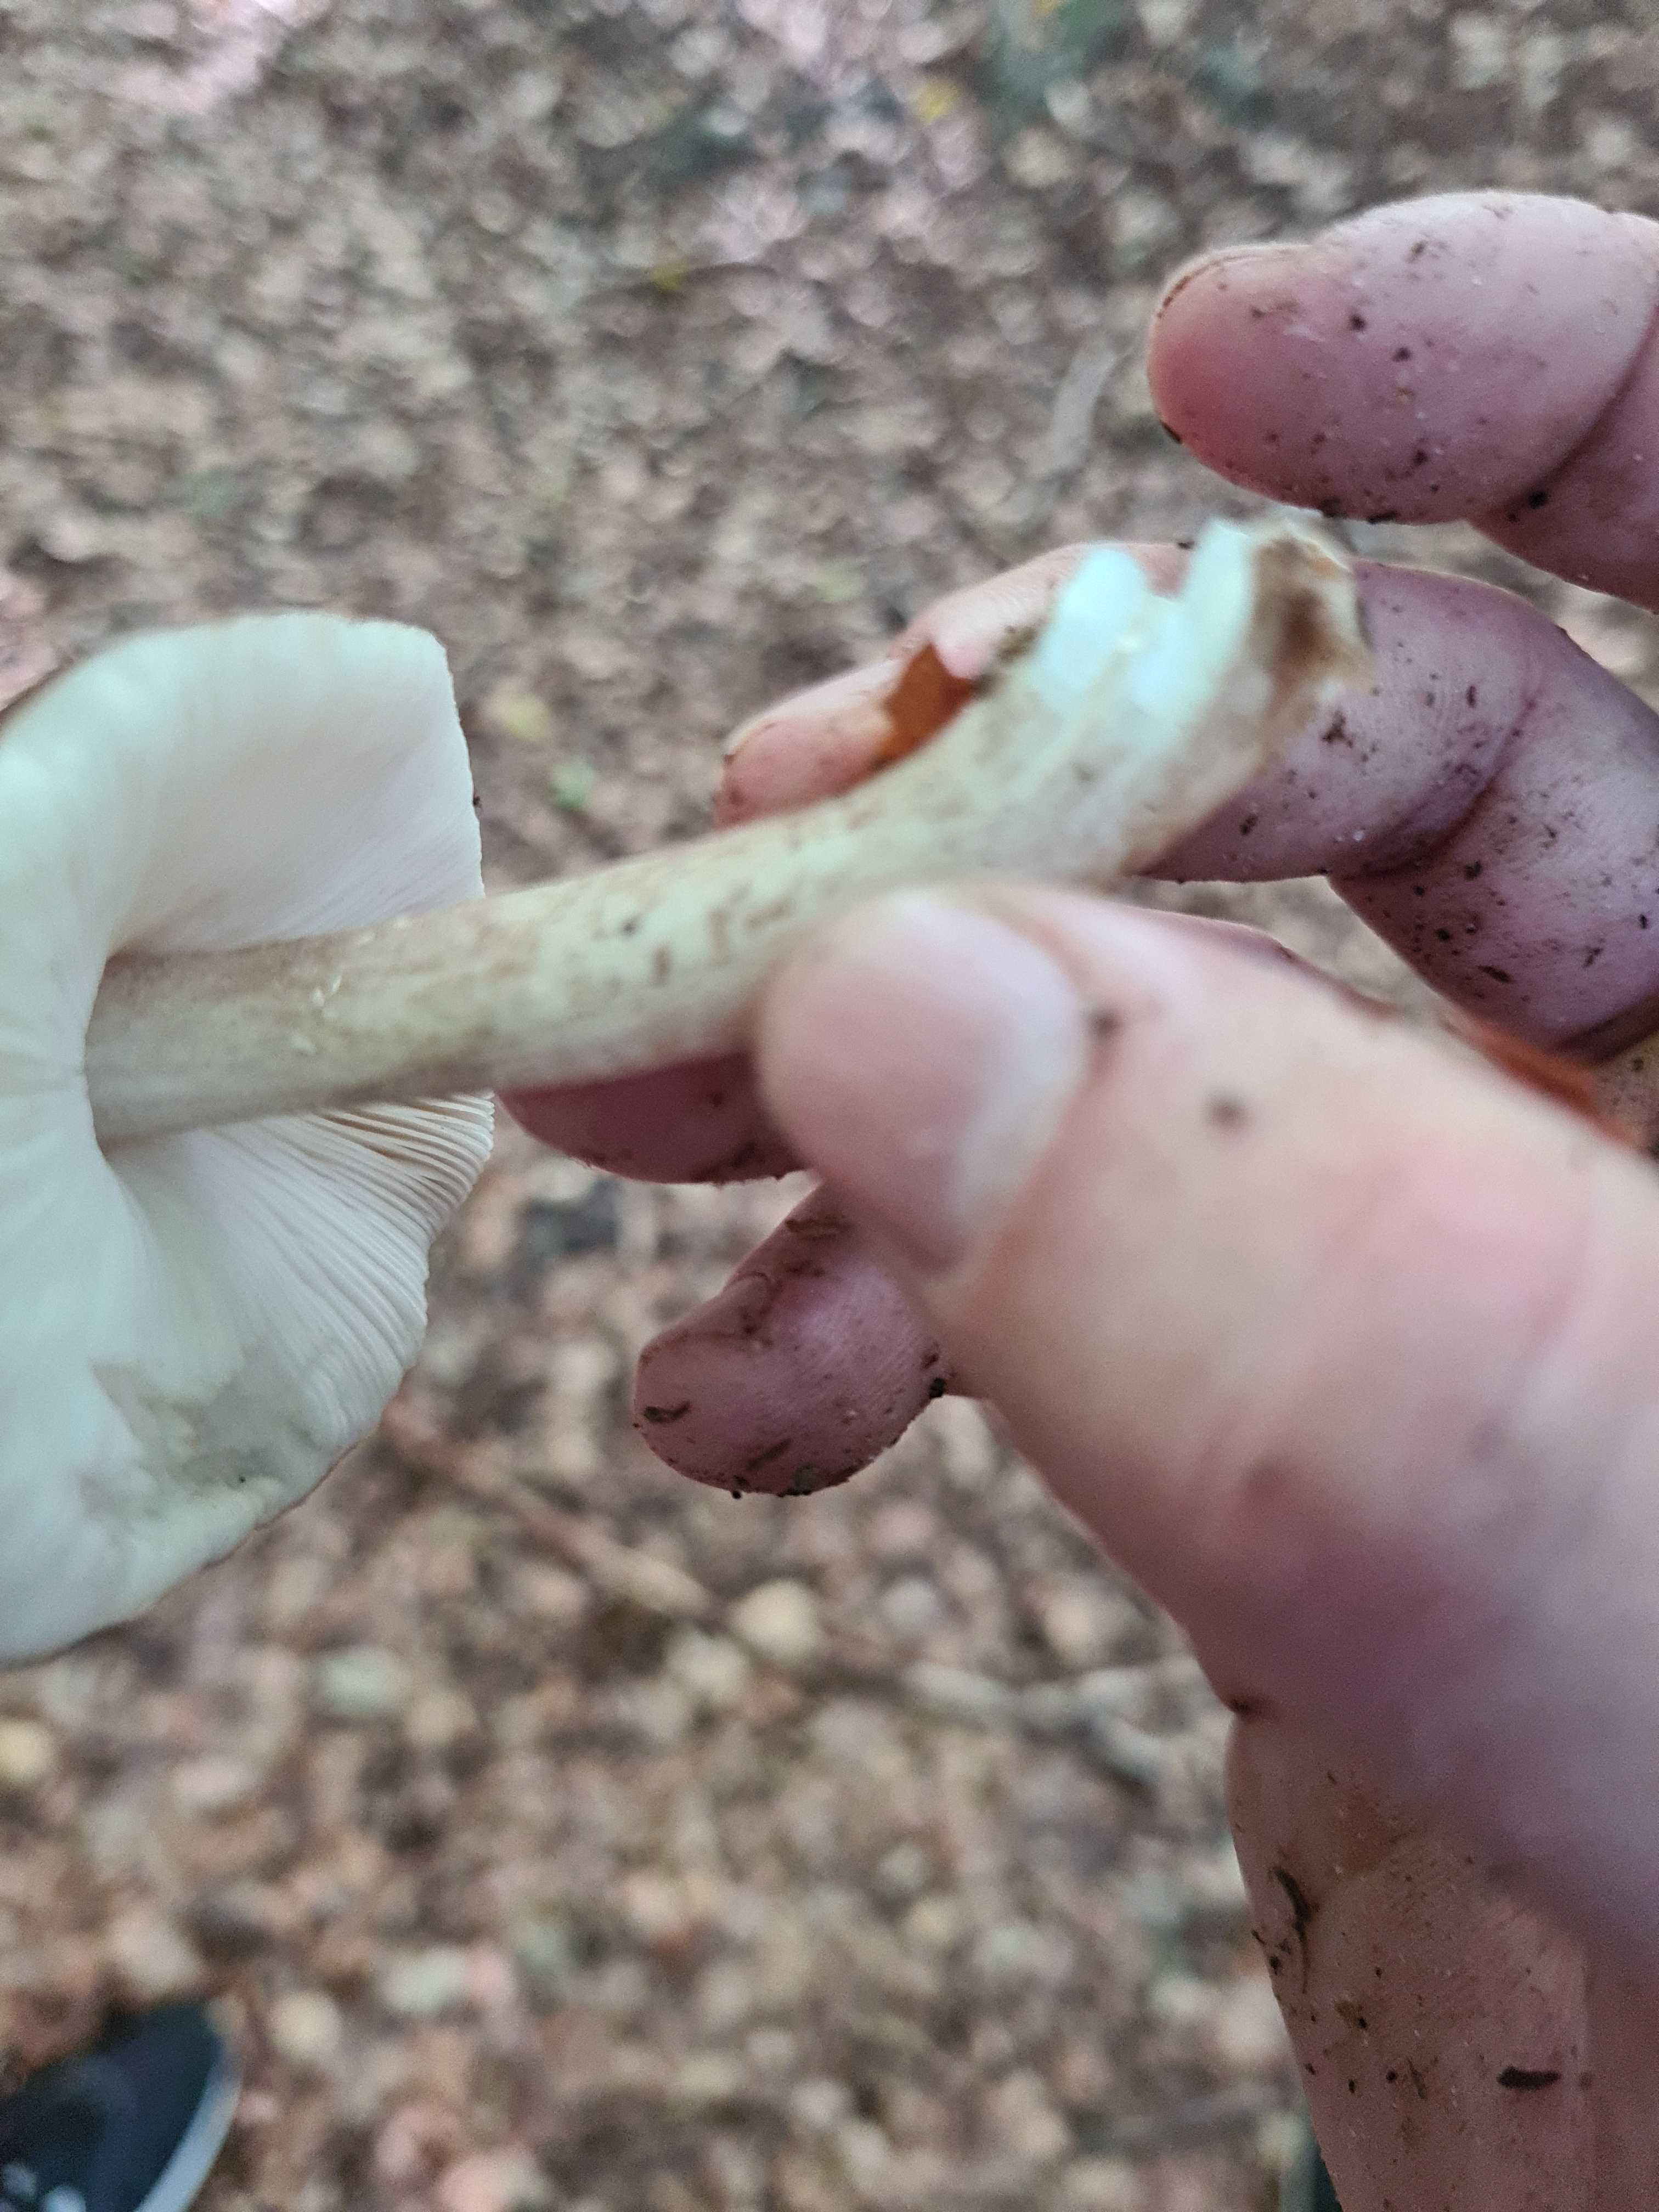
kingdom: Fungi
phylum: Basidiomycota
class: Agaricomycetes
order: Agaricales
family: Pluteaceae
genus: Pluteus
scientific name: Pluteus cervinus
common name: sodfarvet skærmhat
